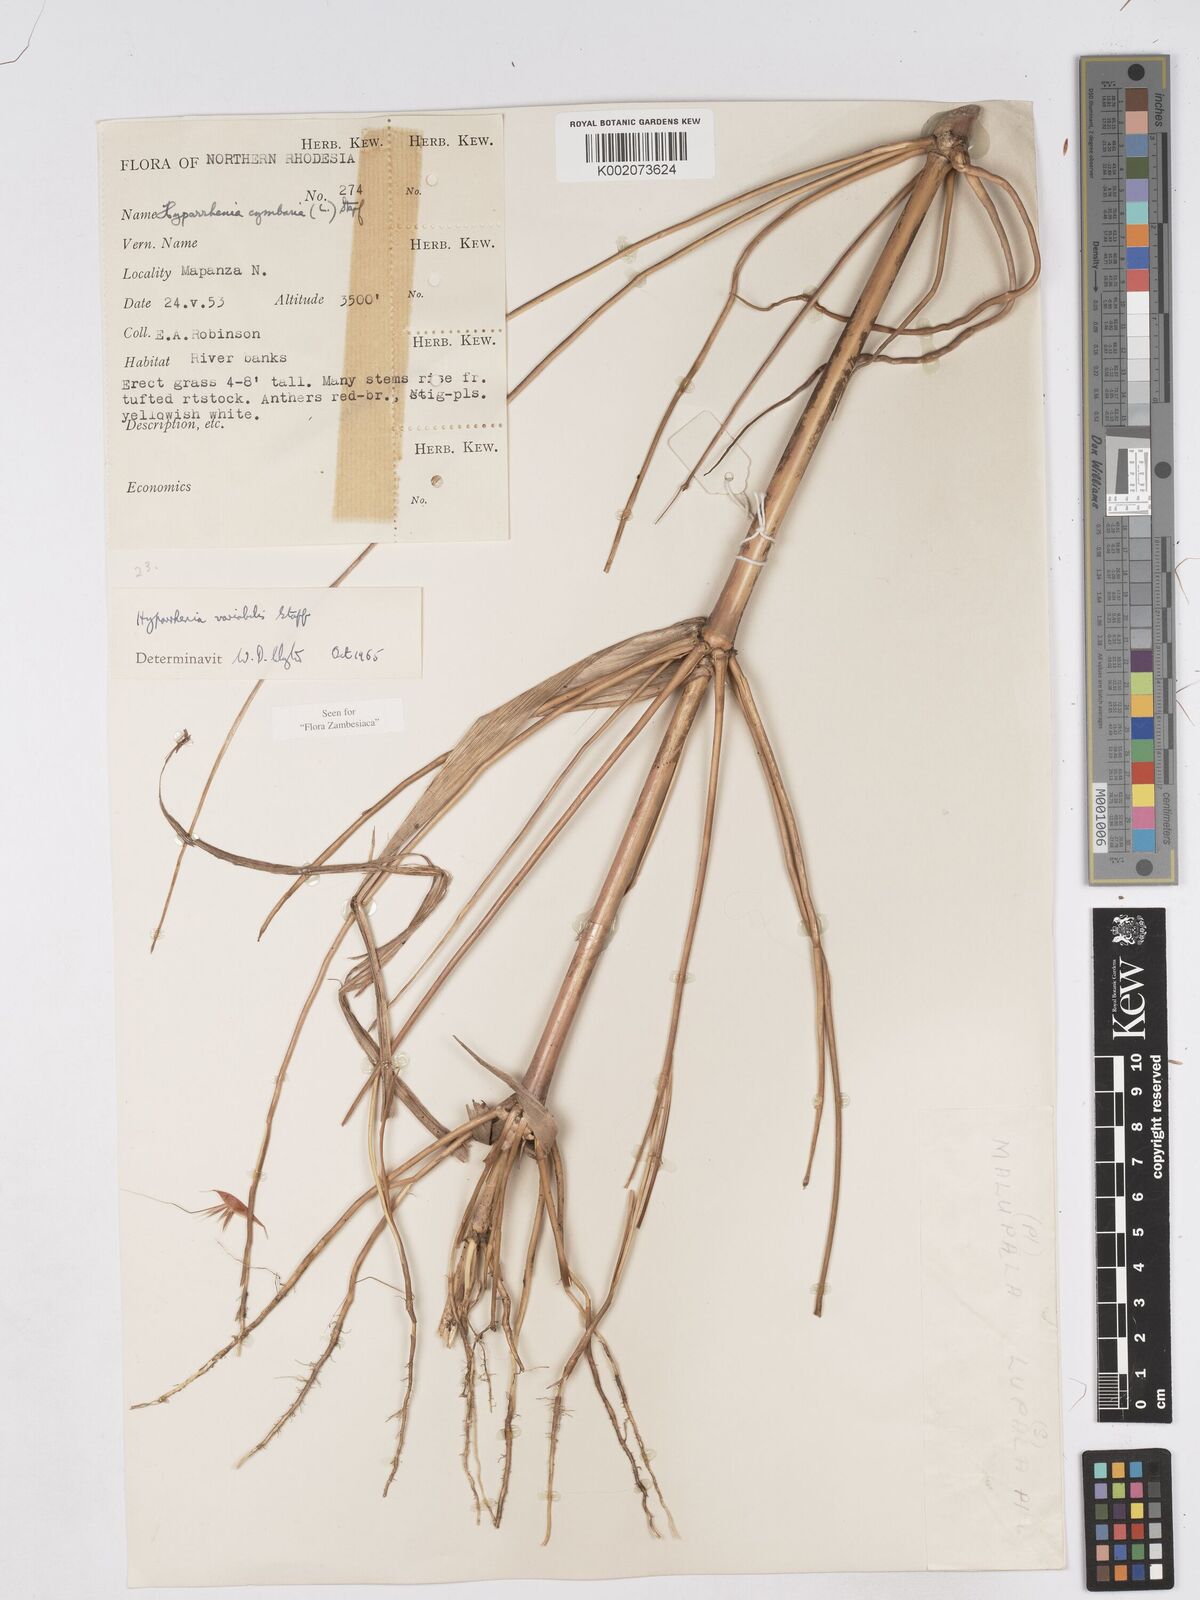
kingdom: Plantae
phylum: Tracheophyta
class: Liliopsida
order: Poales
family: Poaceae
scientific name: Poaceae
